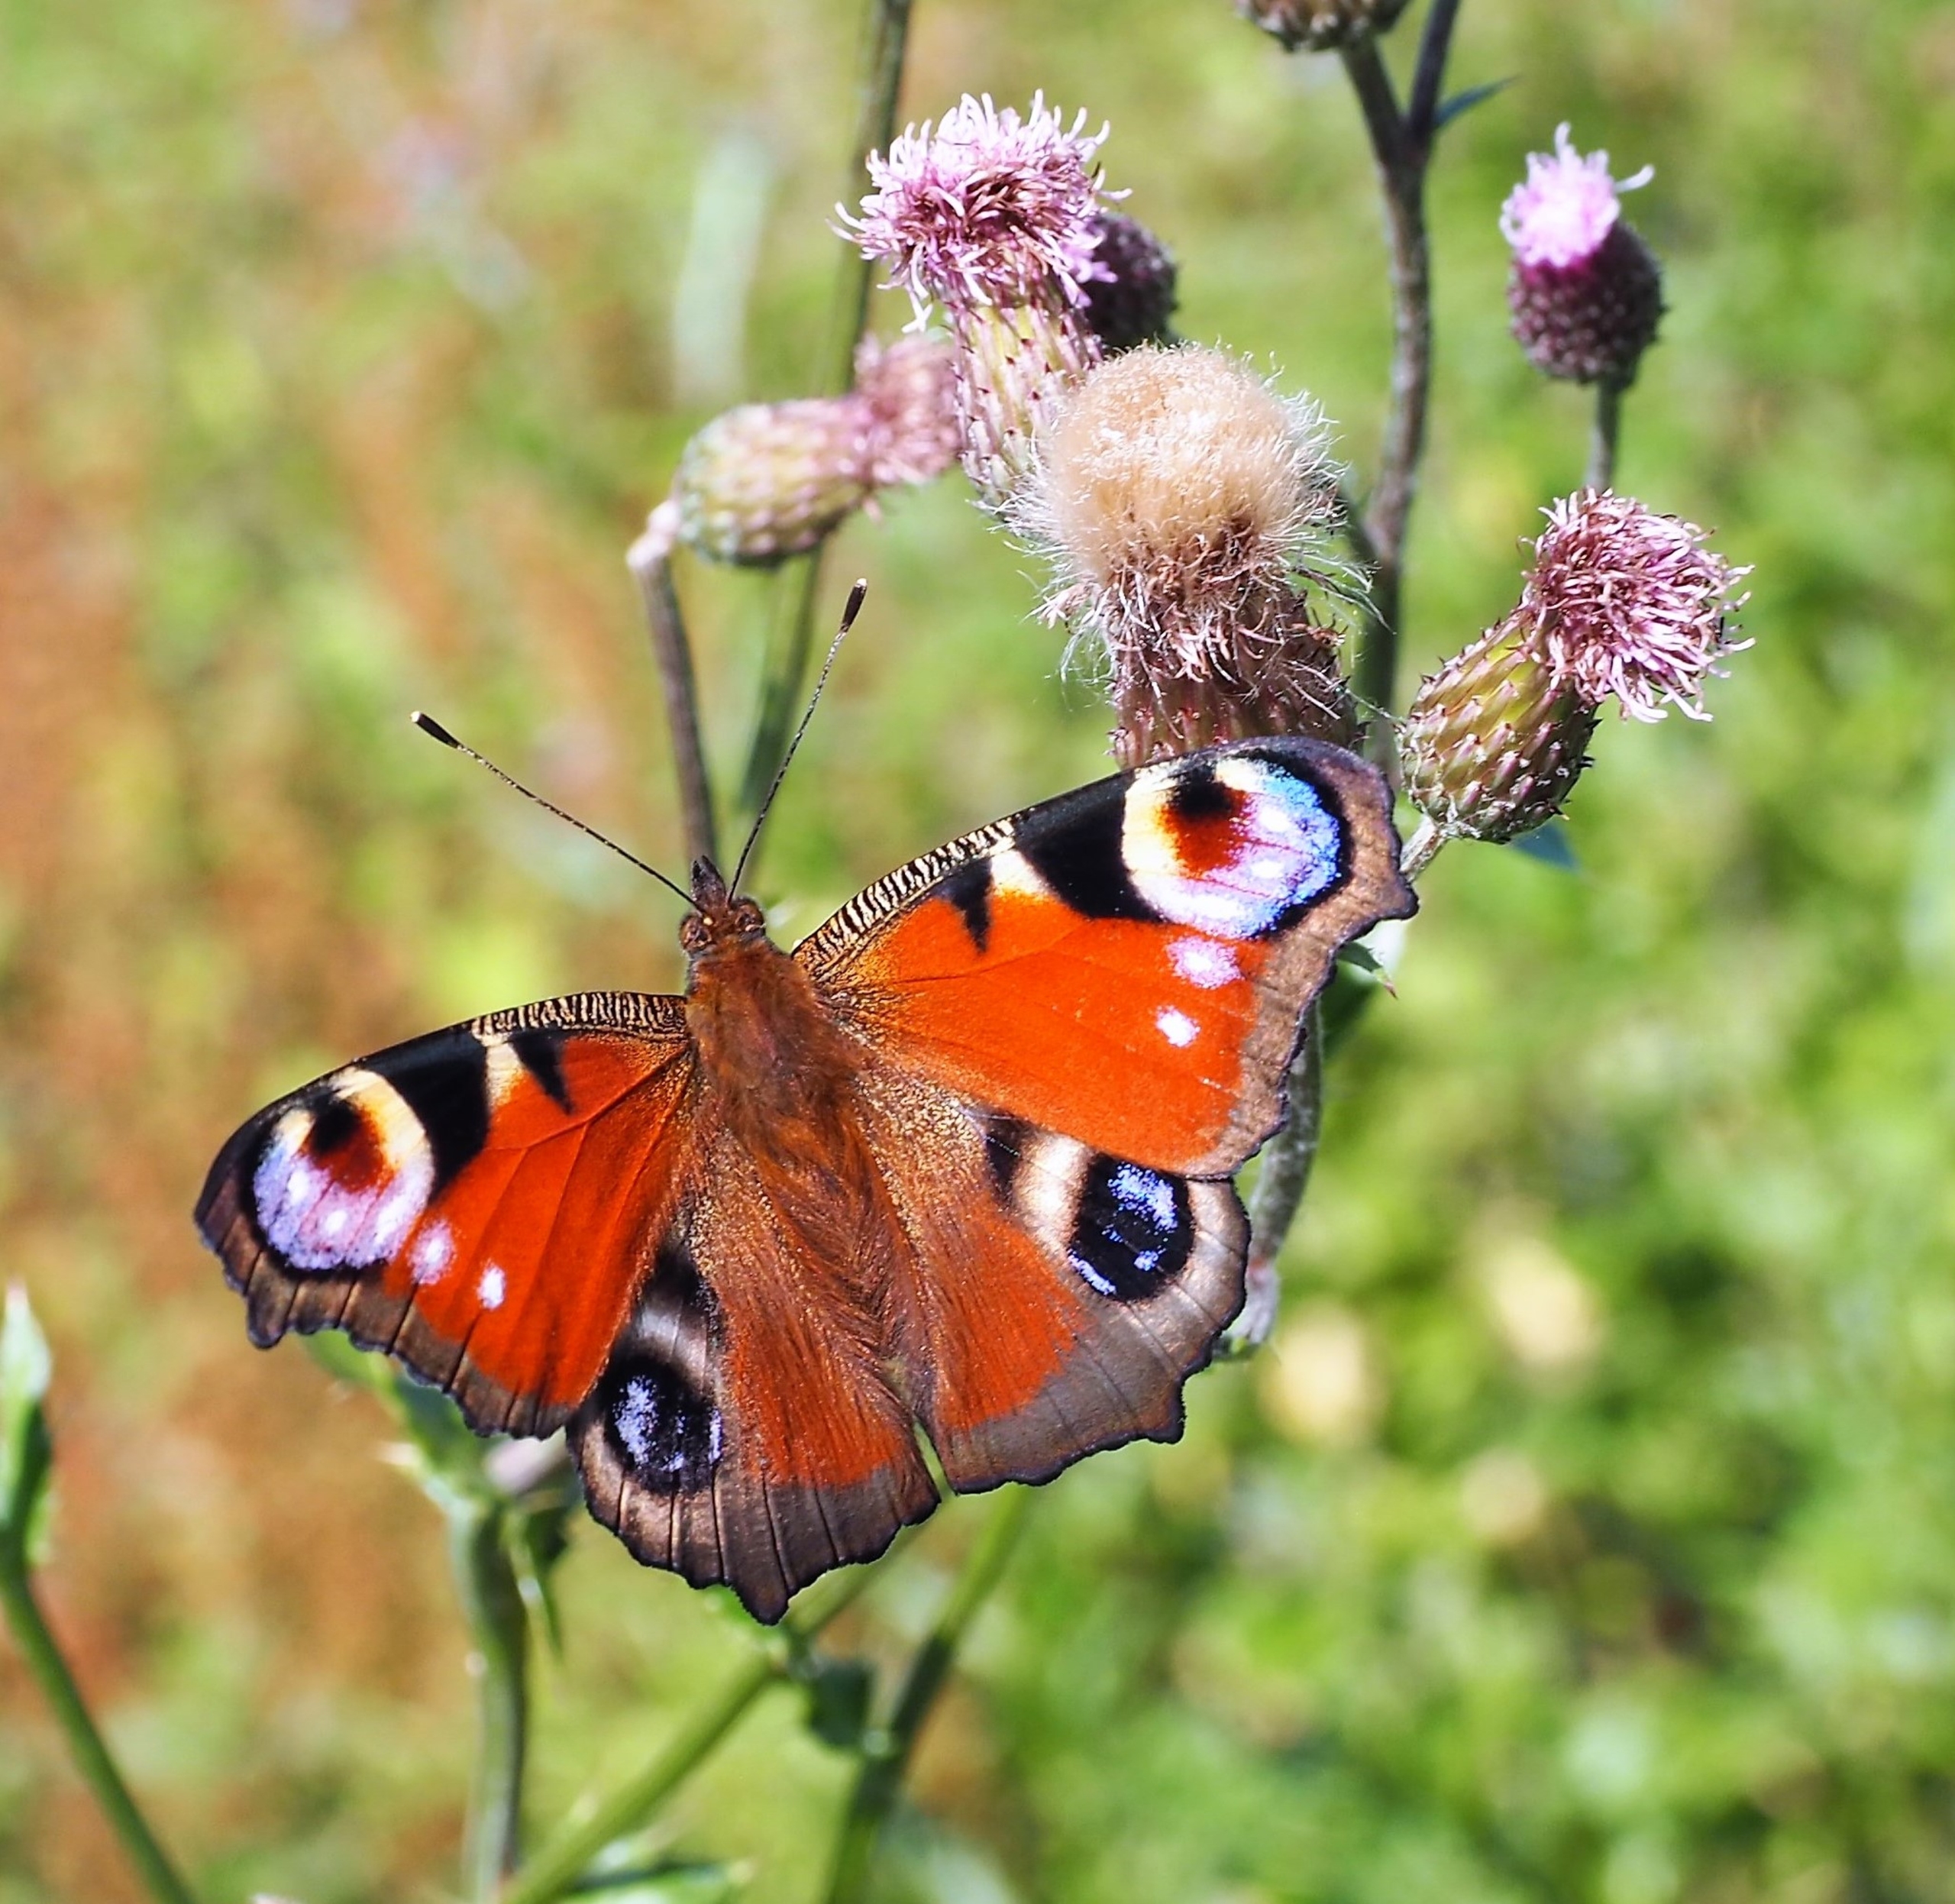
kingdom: Animalia
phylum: Arthropoda
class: Insecta
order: Lepidoptera
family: Nymphalidae
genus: Aglais
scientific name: Aglais io
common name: Dagpåfugleøje
